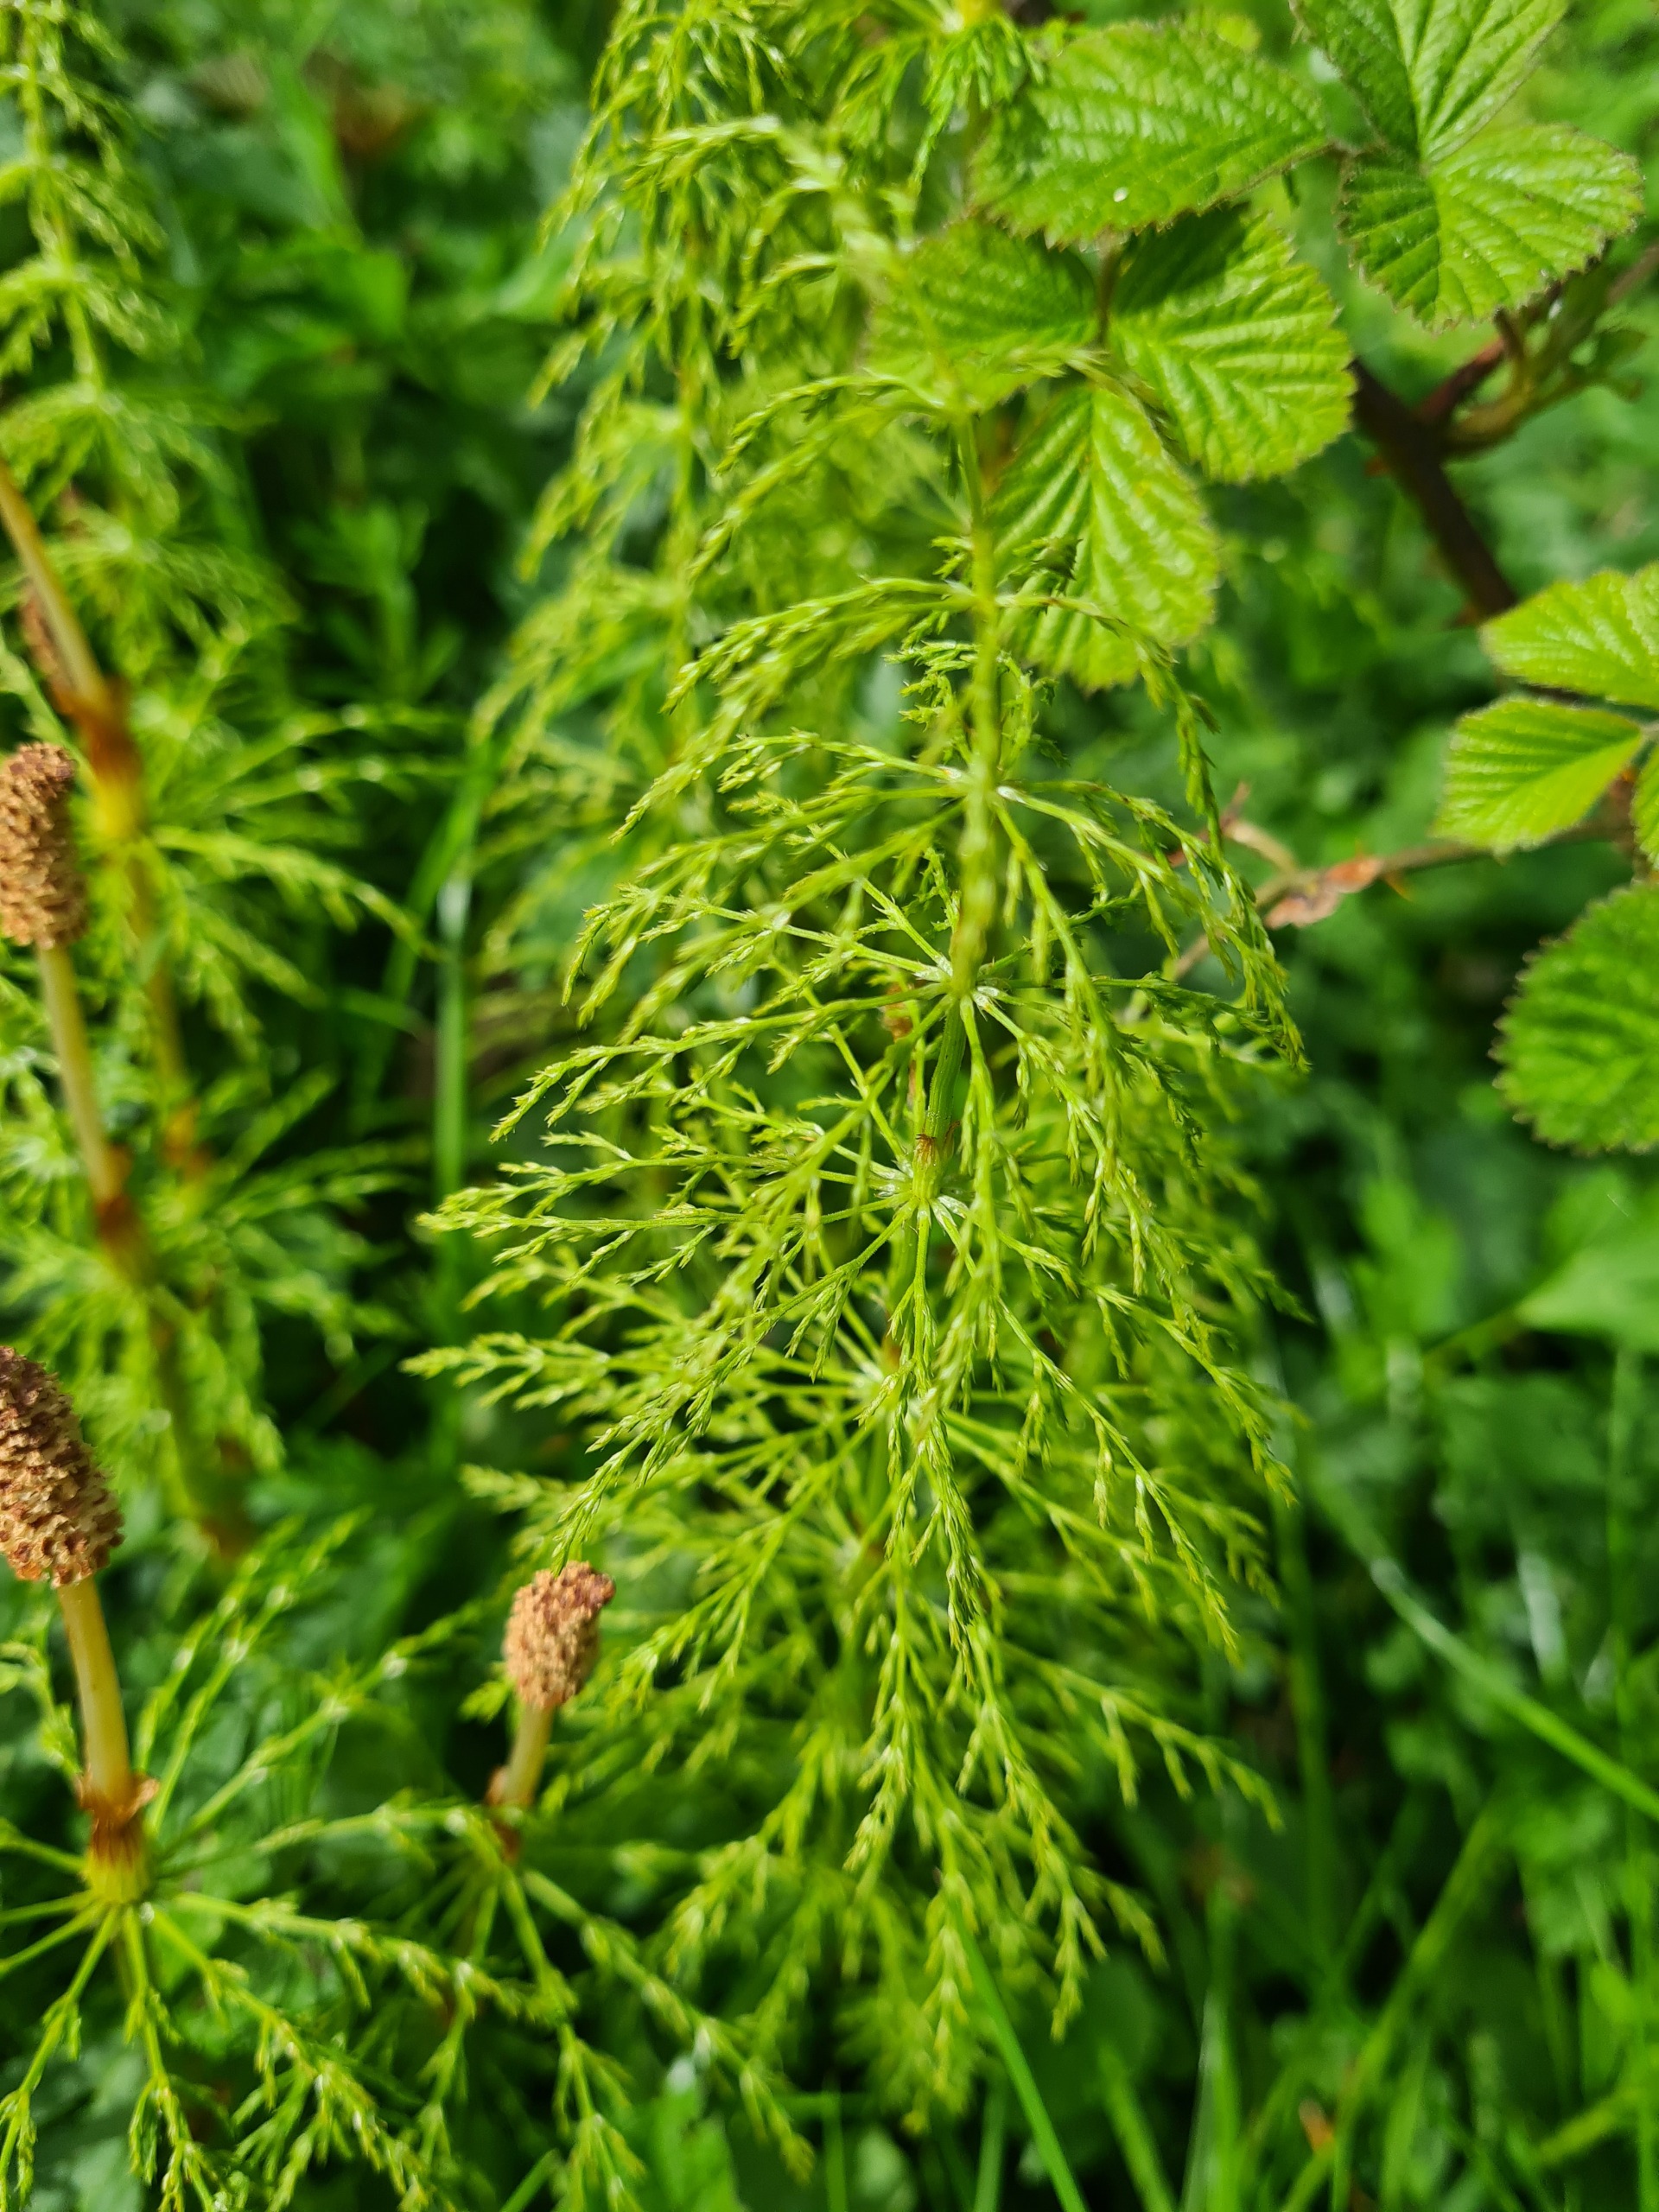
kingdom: Plantae
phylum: Tracheophyta
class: Polypodiopsida
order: Equisetales
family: Equisetaceae
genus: Equisetum
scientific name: Equisetum sylvaticum
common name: Skov-padderok
